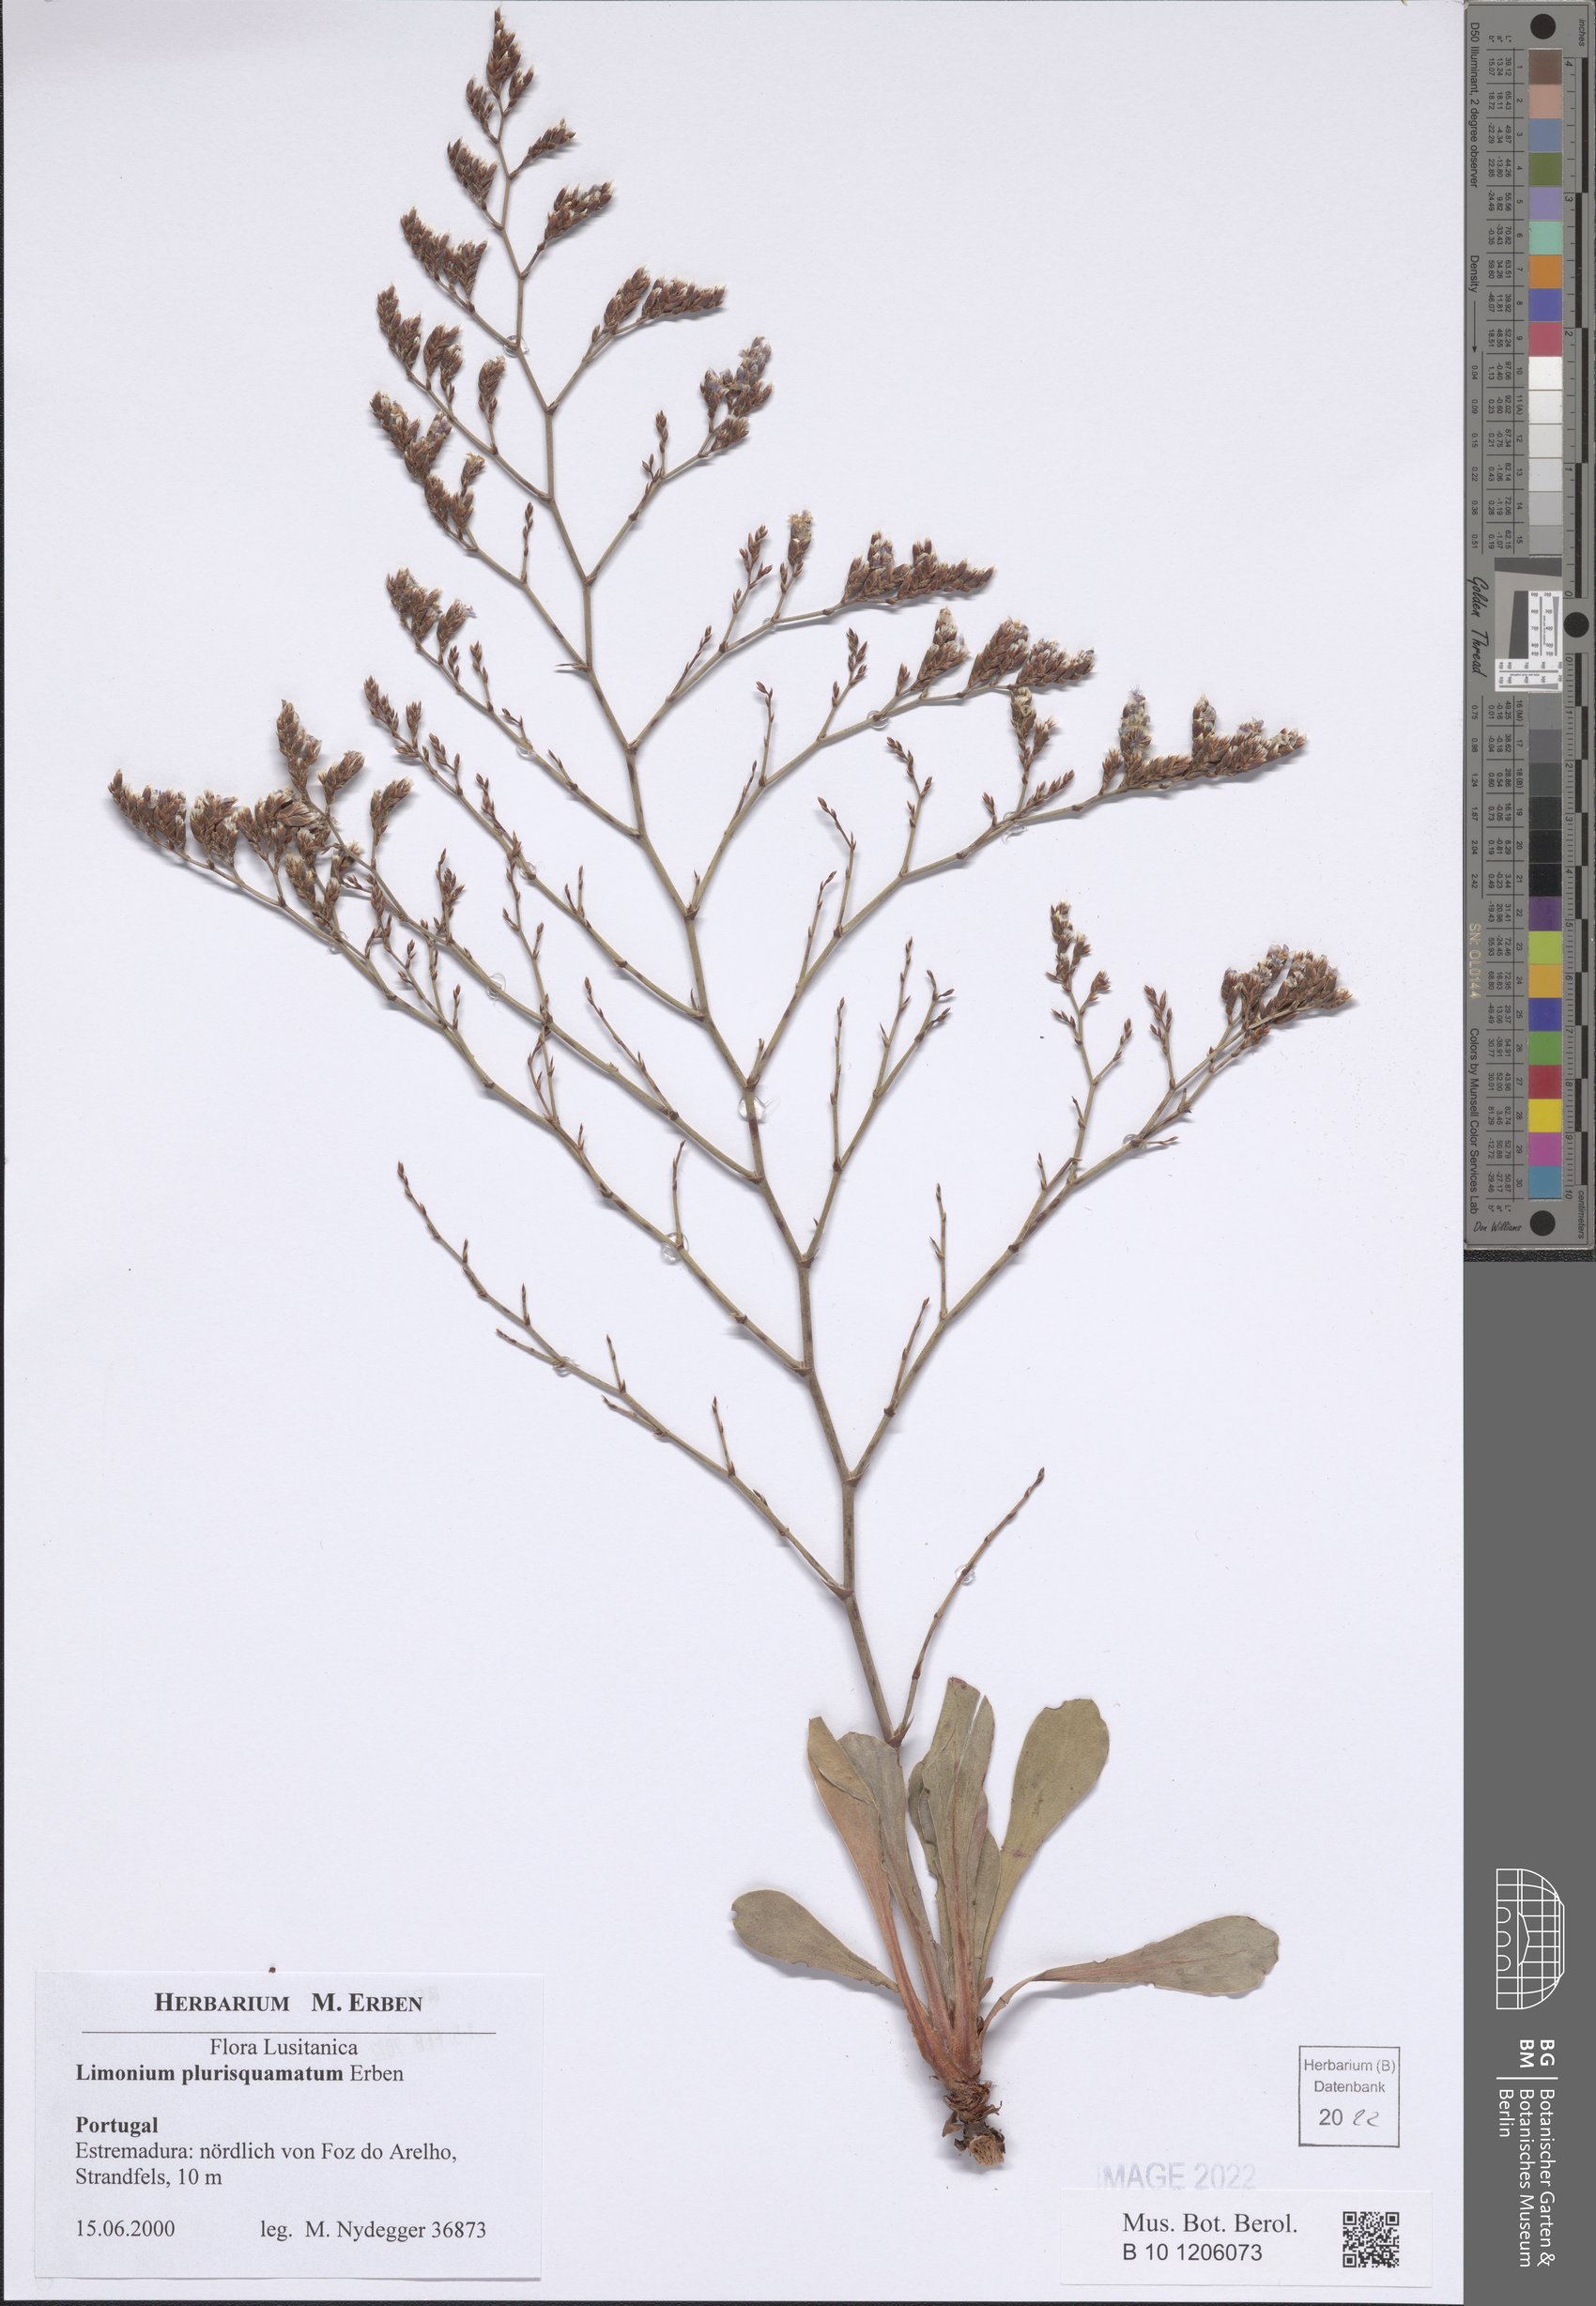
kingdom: Plantae
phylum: Tracheophyta
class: Magnoliopsida
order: Caryophyllales
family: Plumbaginaceae
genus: Limonium
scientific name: Limonium plurisquamatum
